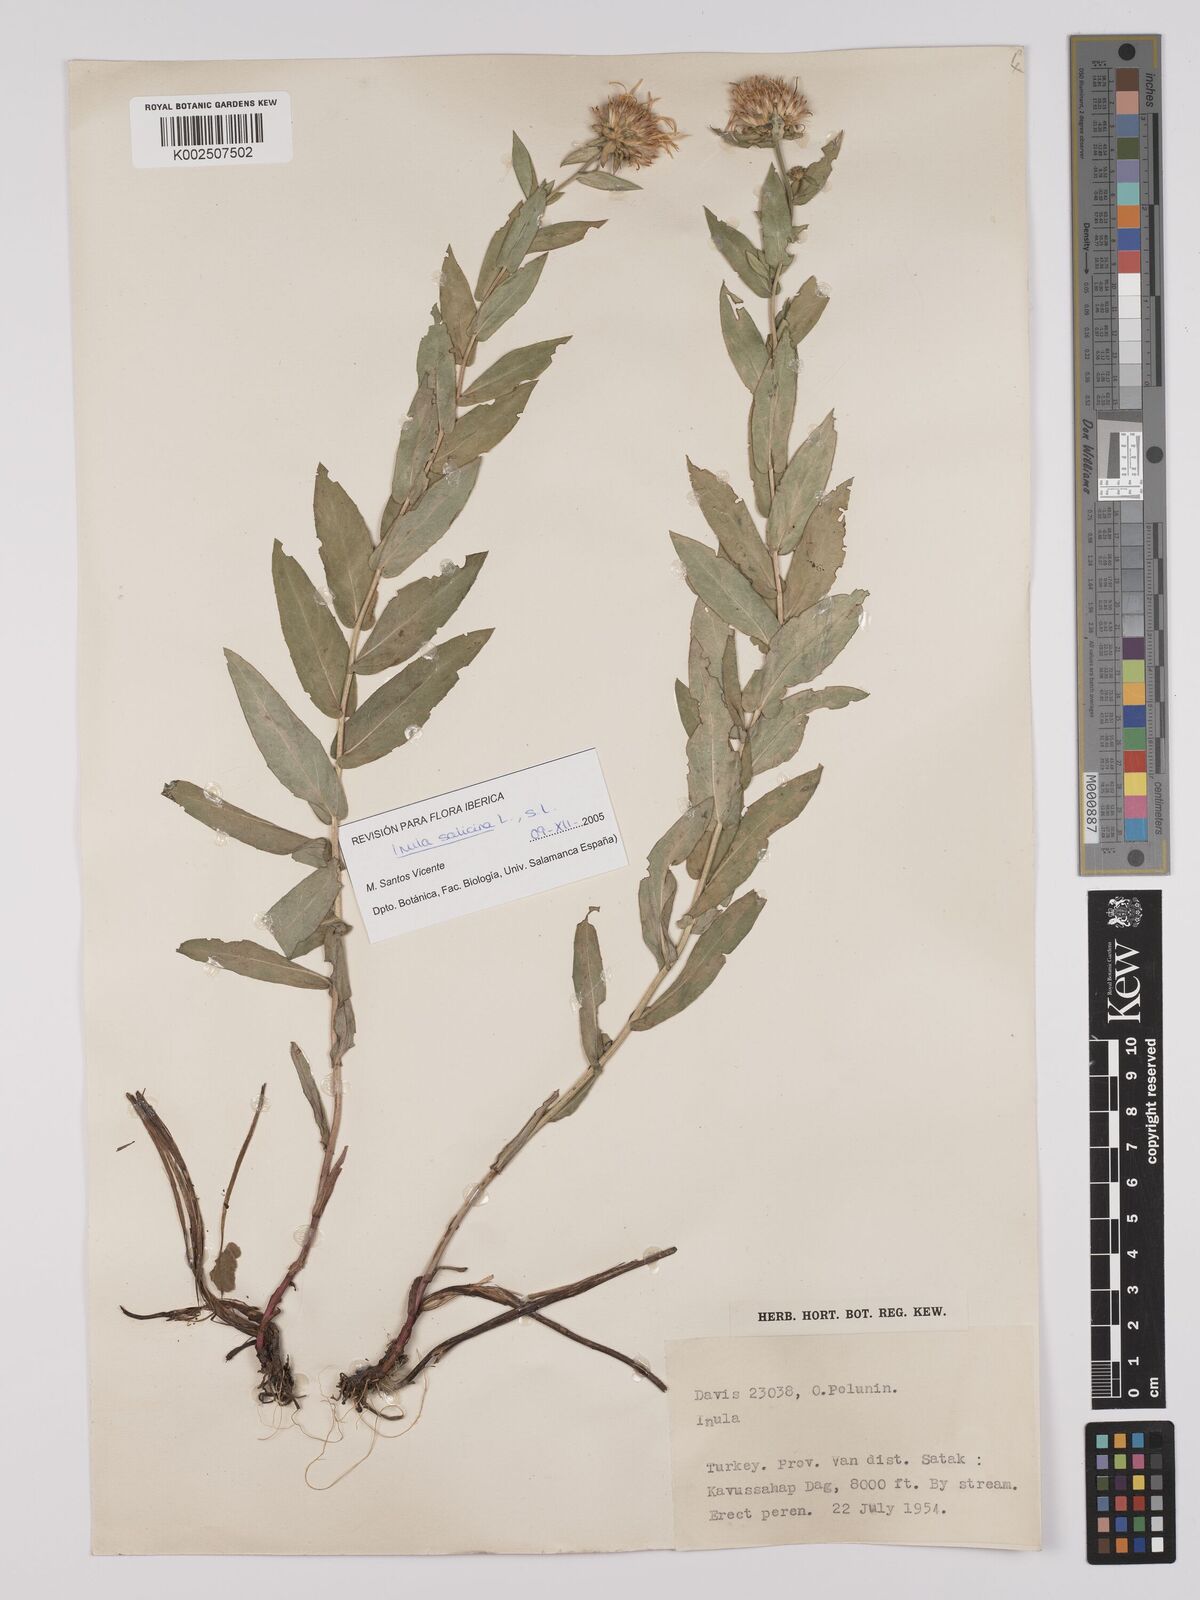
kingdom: Plantae
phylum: Tracheophyta
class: Magnoliopsida
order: Asterales
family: Asteraceae
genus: Pentanema
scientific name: Pentanema salicinum
